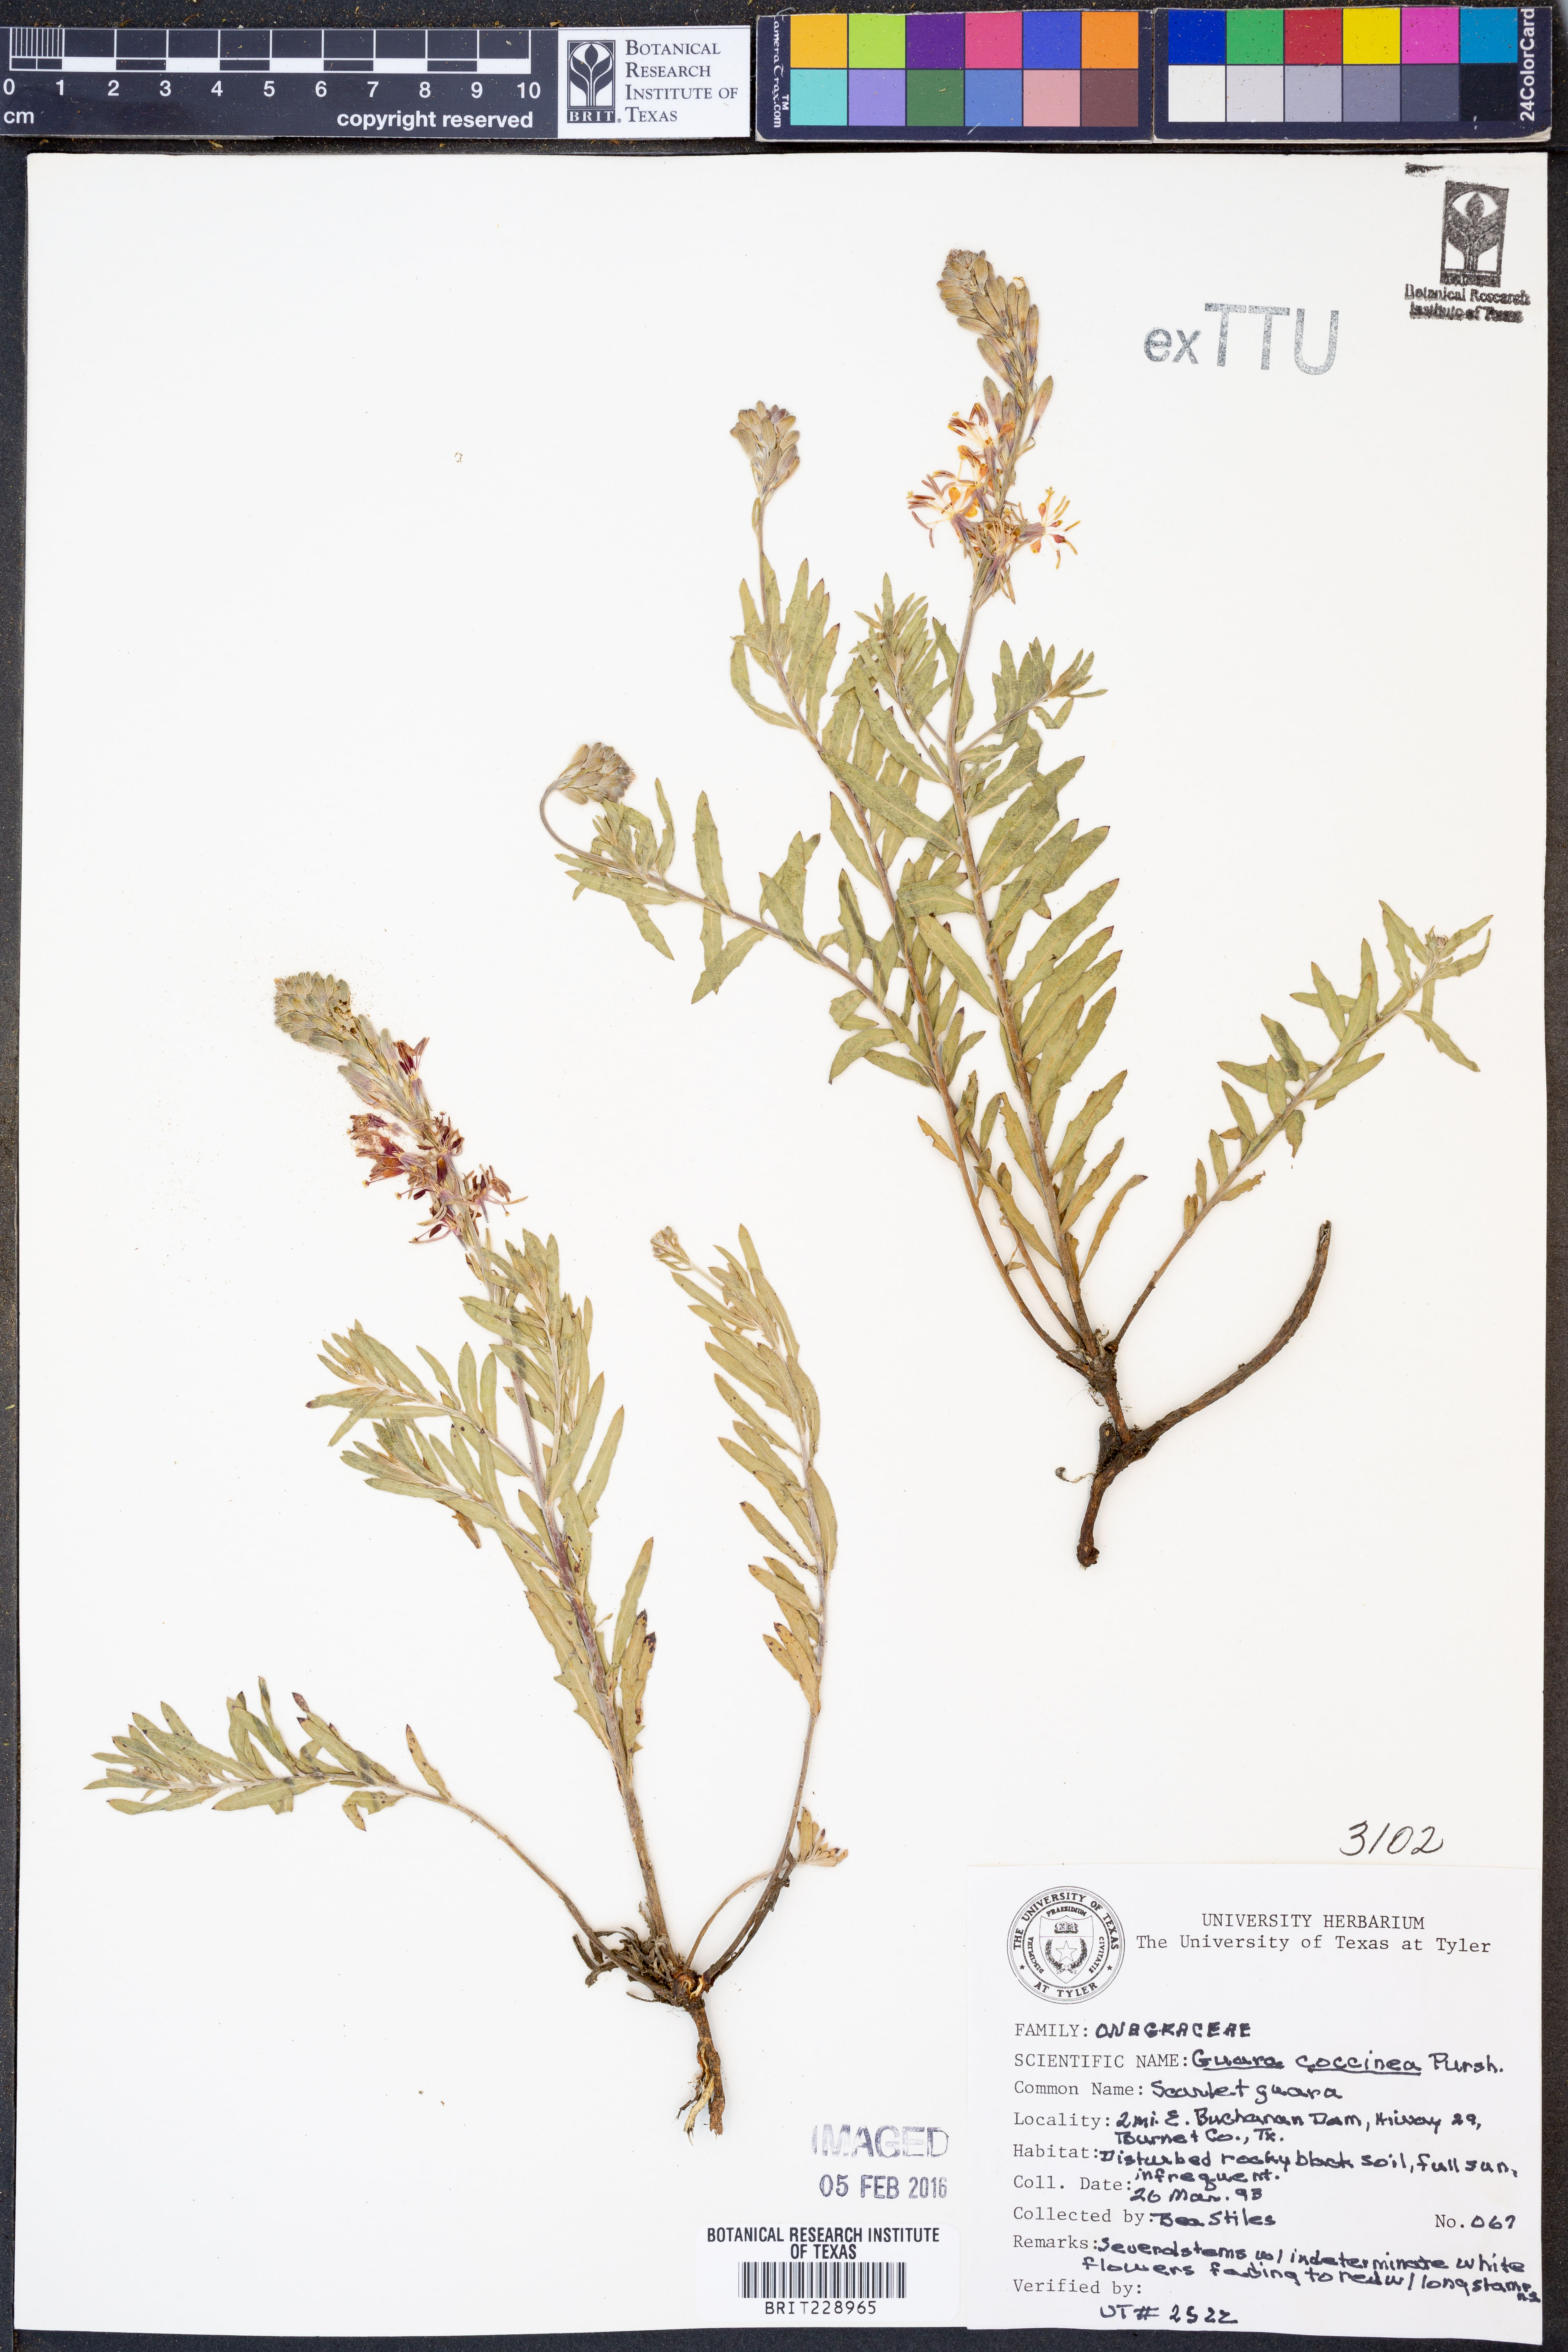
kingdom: Plantae
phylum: Tracheophyta
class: Magnoliopsida
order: Myrtales
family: Onagraceae
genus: Oenothera
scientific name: Oenothera suffrutescens
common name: Scarlet beeblossom
